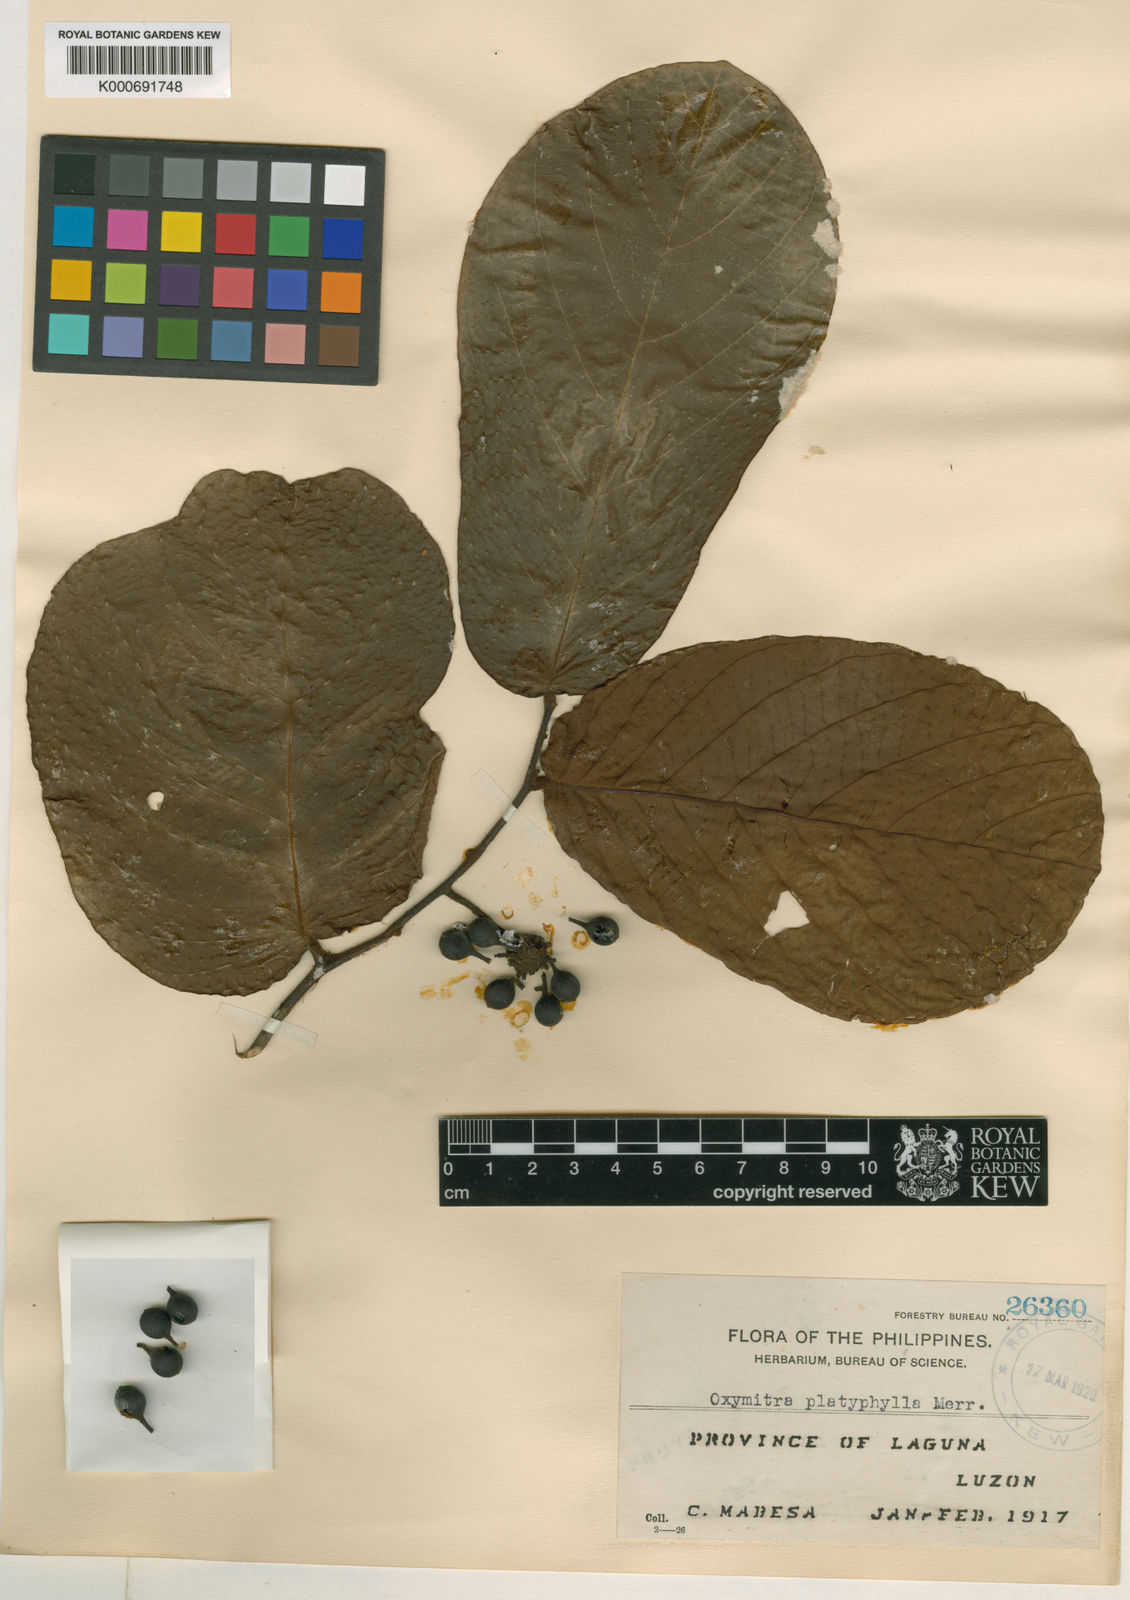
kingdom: Plantae
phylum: Tracheophyta
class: Magnoliopsida
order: Magnoliales
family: Annonaceae
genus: Friesodielsia
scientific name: Friesodielsia platyphylla
